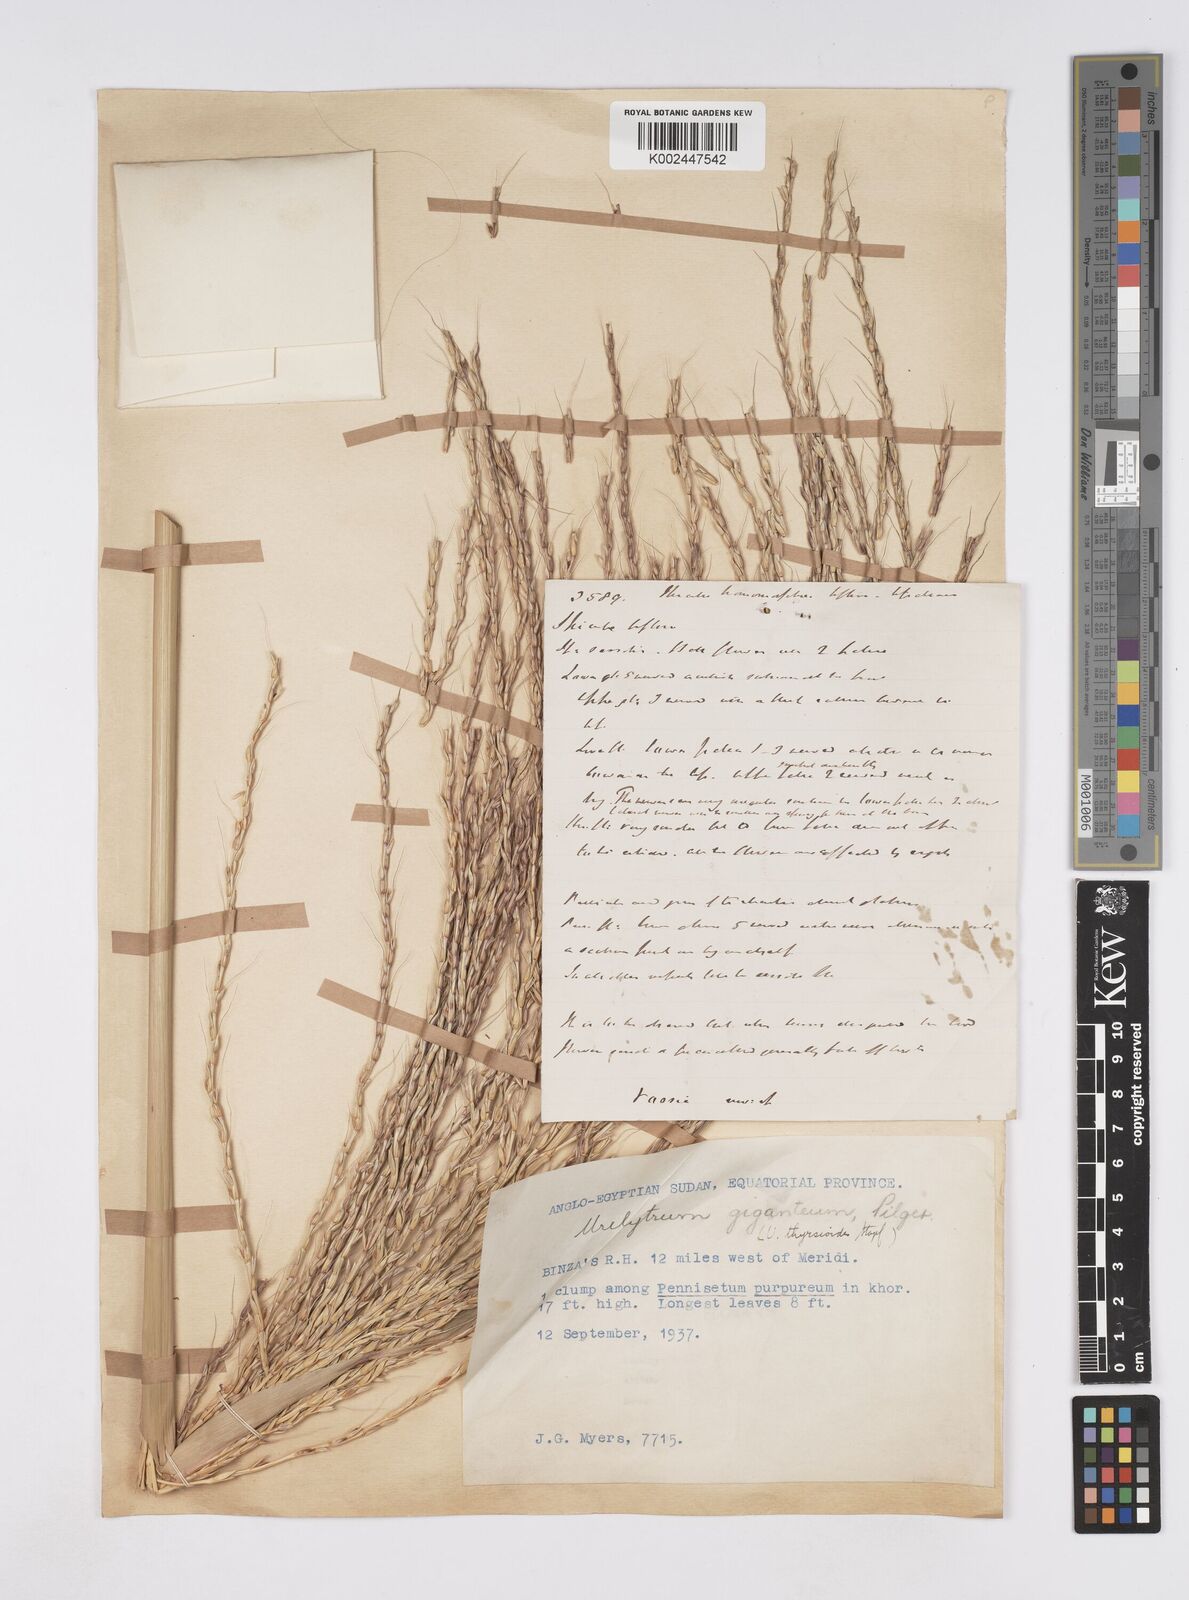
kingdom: Plantae
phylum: Tracheophyta
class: Liliopsida
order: Poales
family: Poaceae
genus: Urelytrum
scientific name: Urelytrum giganteum
